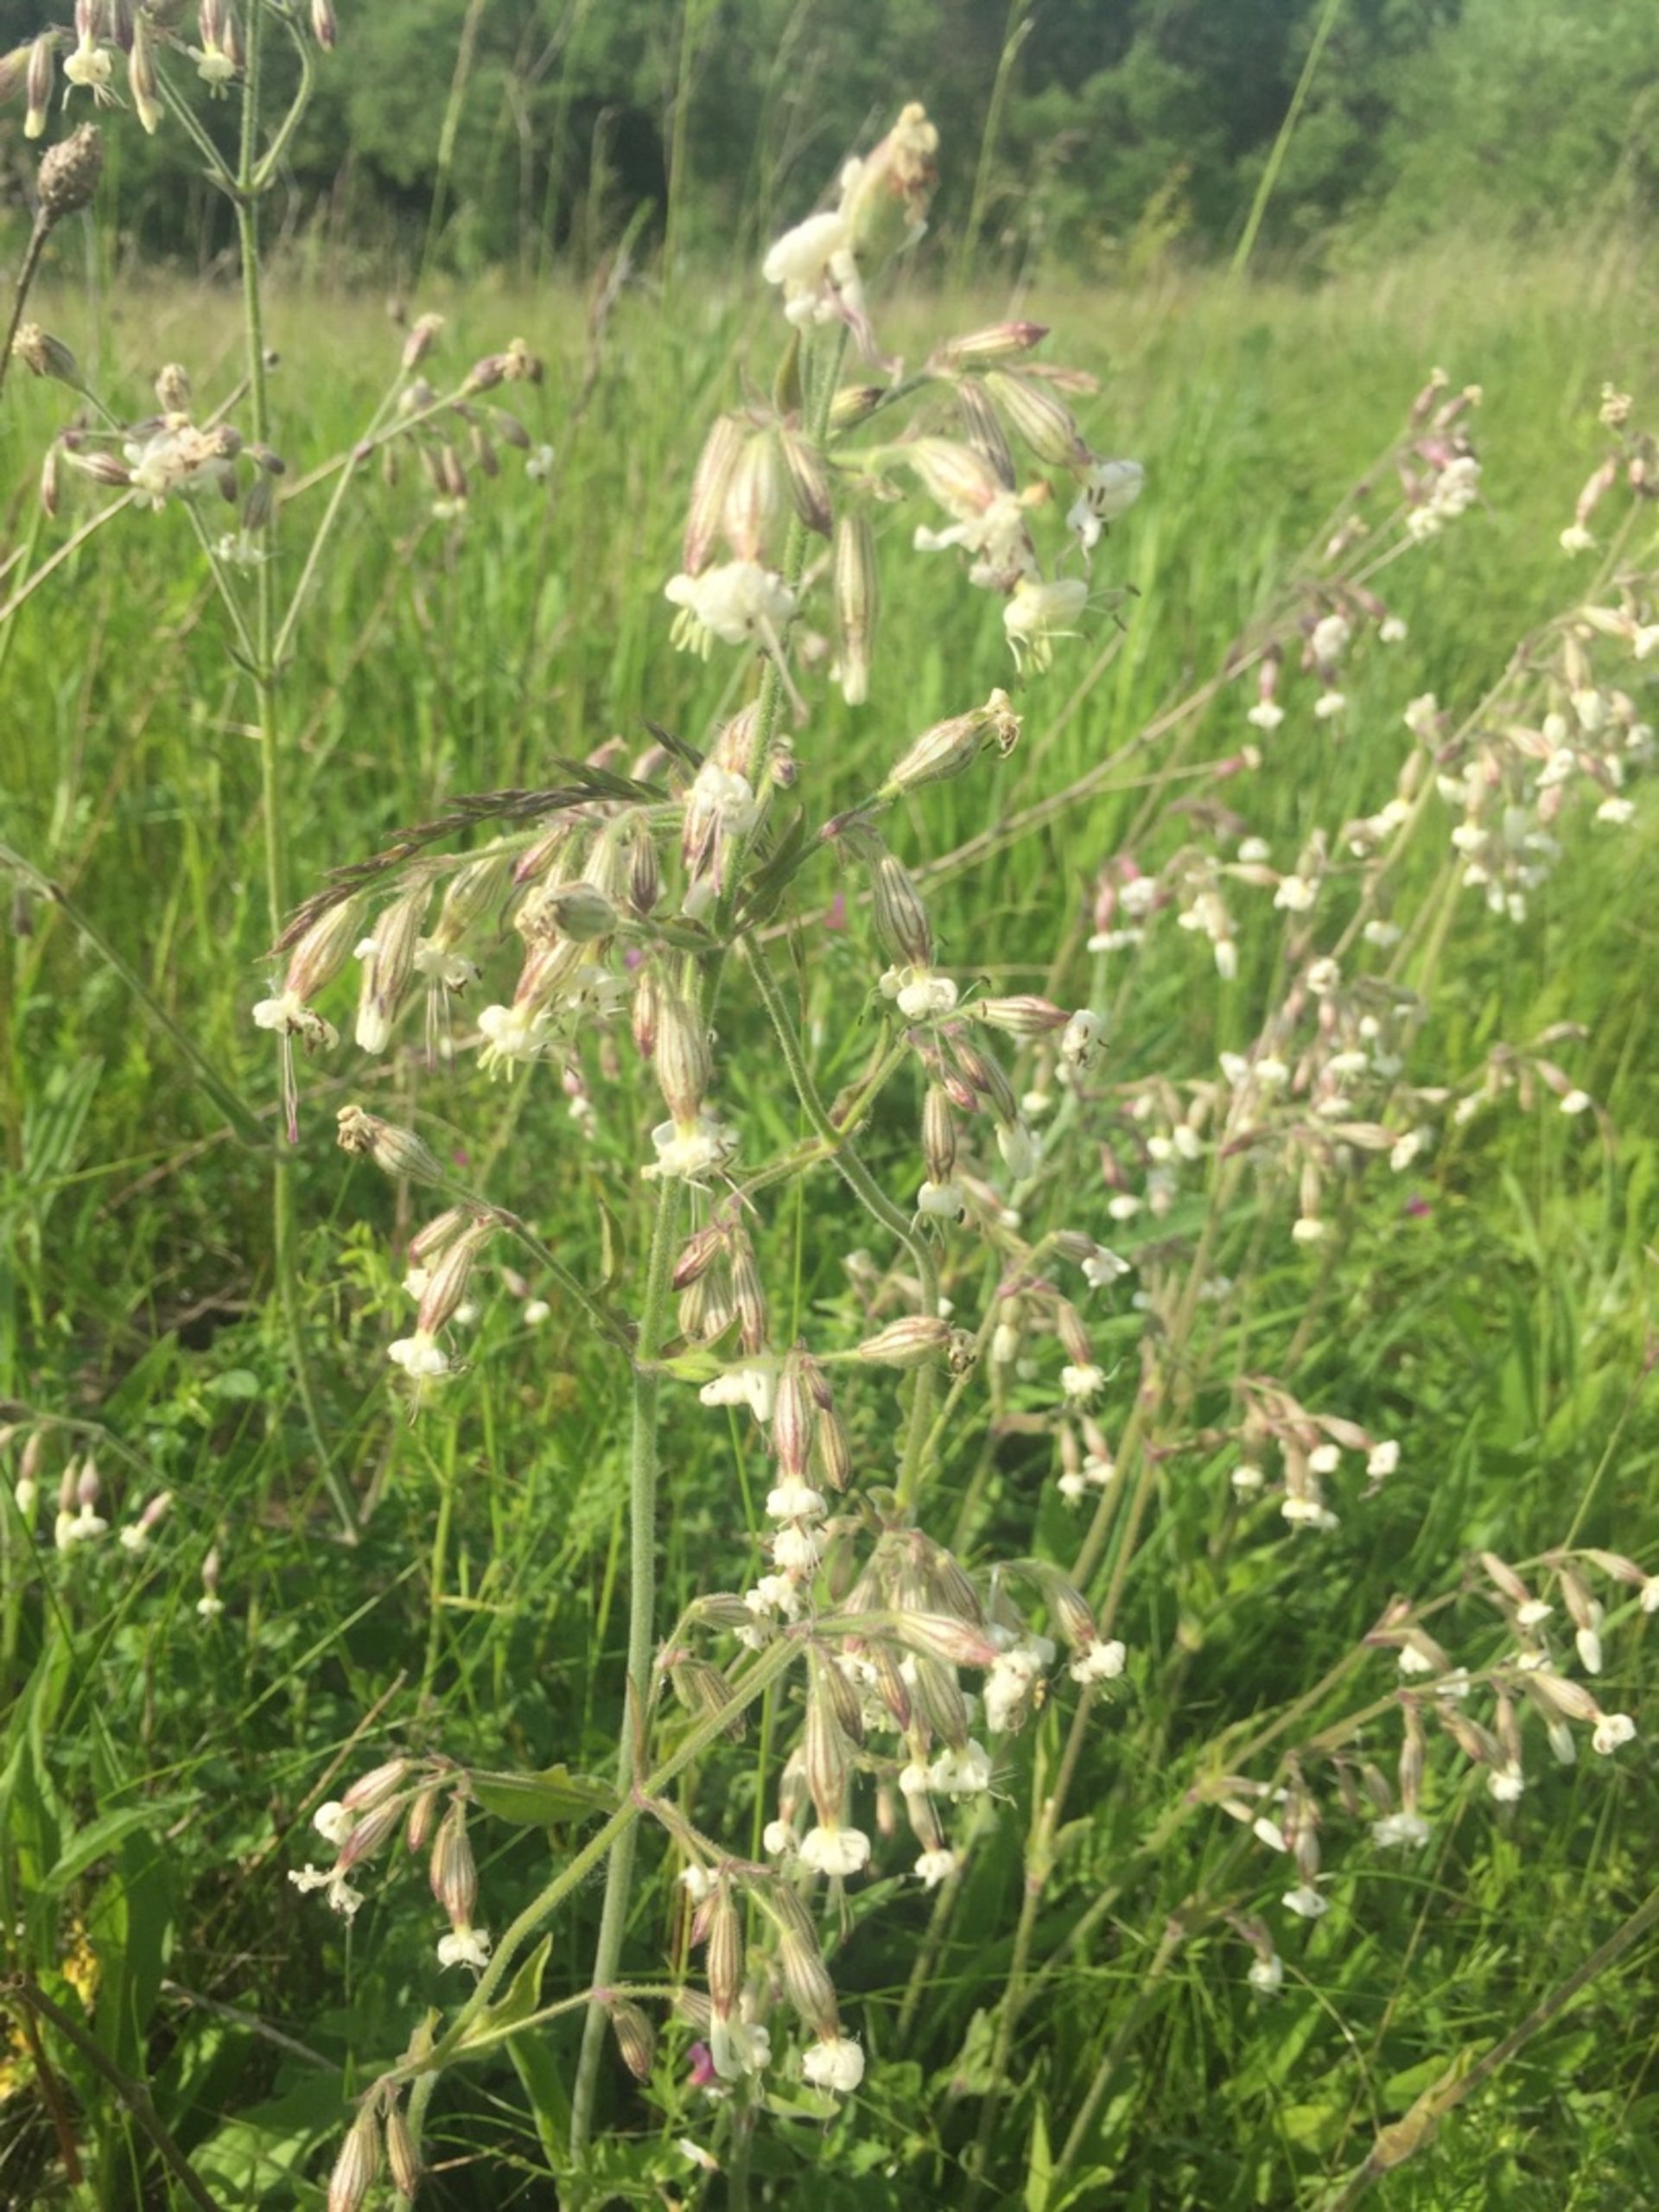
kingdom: Plantae
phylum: Tracheophyta
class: Magnoliopsida
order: Caryophyllales
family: Caryophyllaceae
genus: Silene
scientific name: Silene nutans
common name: Nikkende limurt
